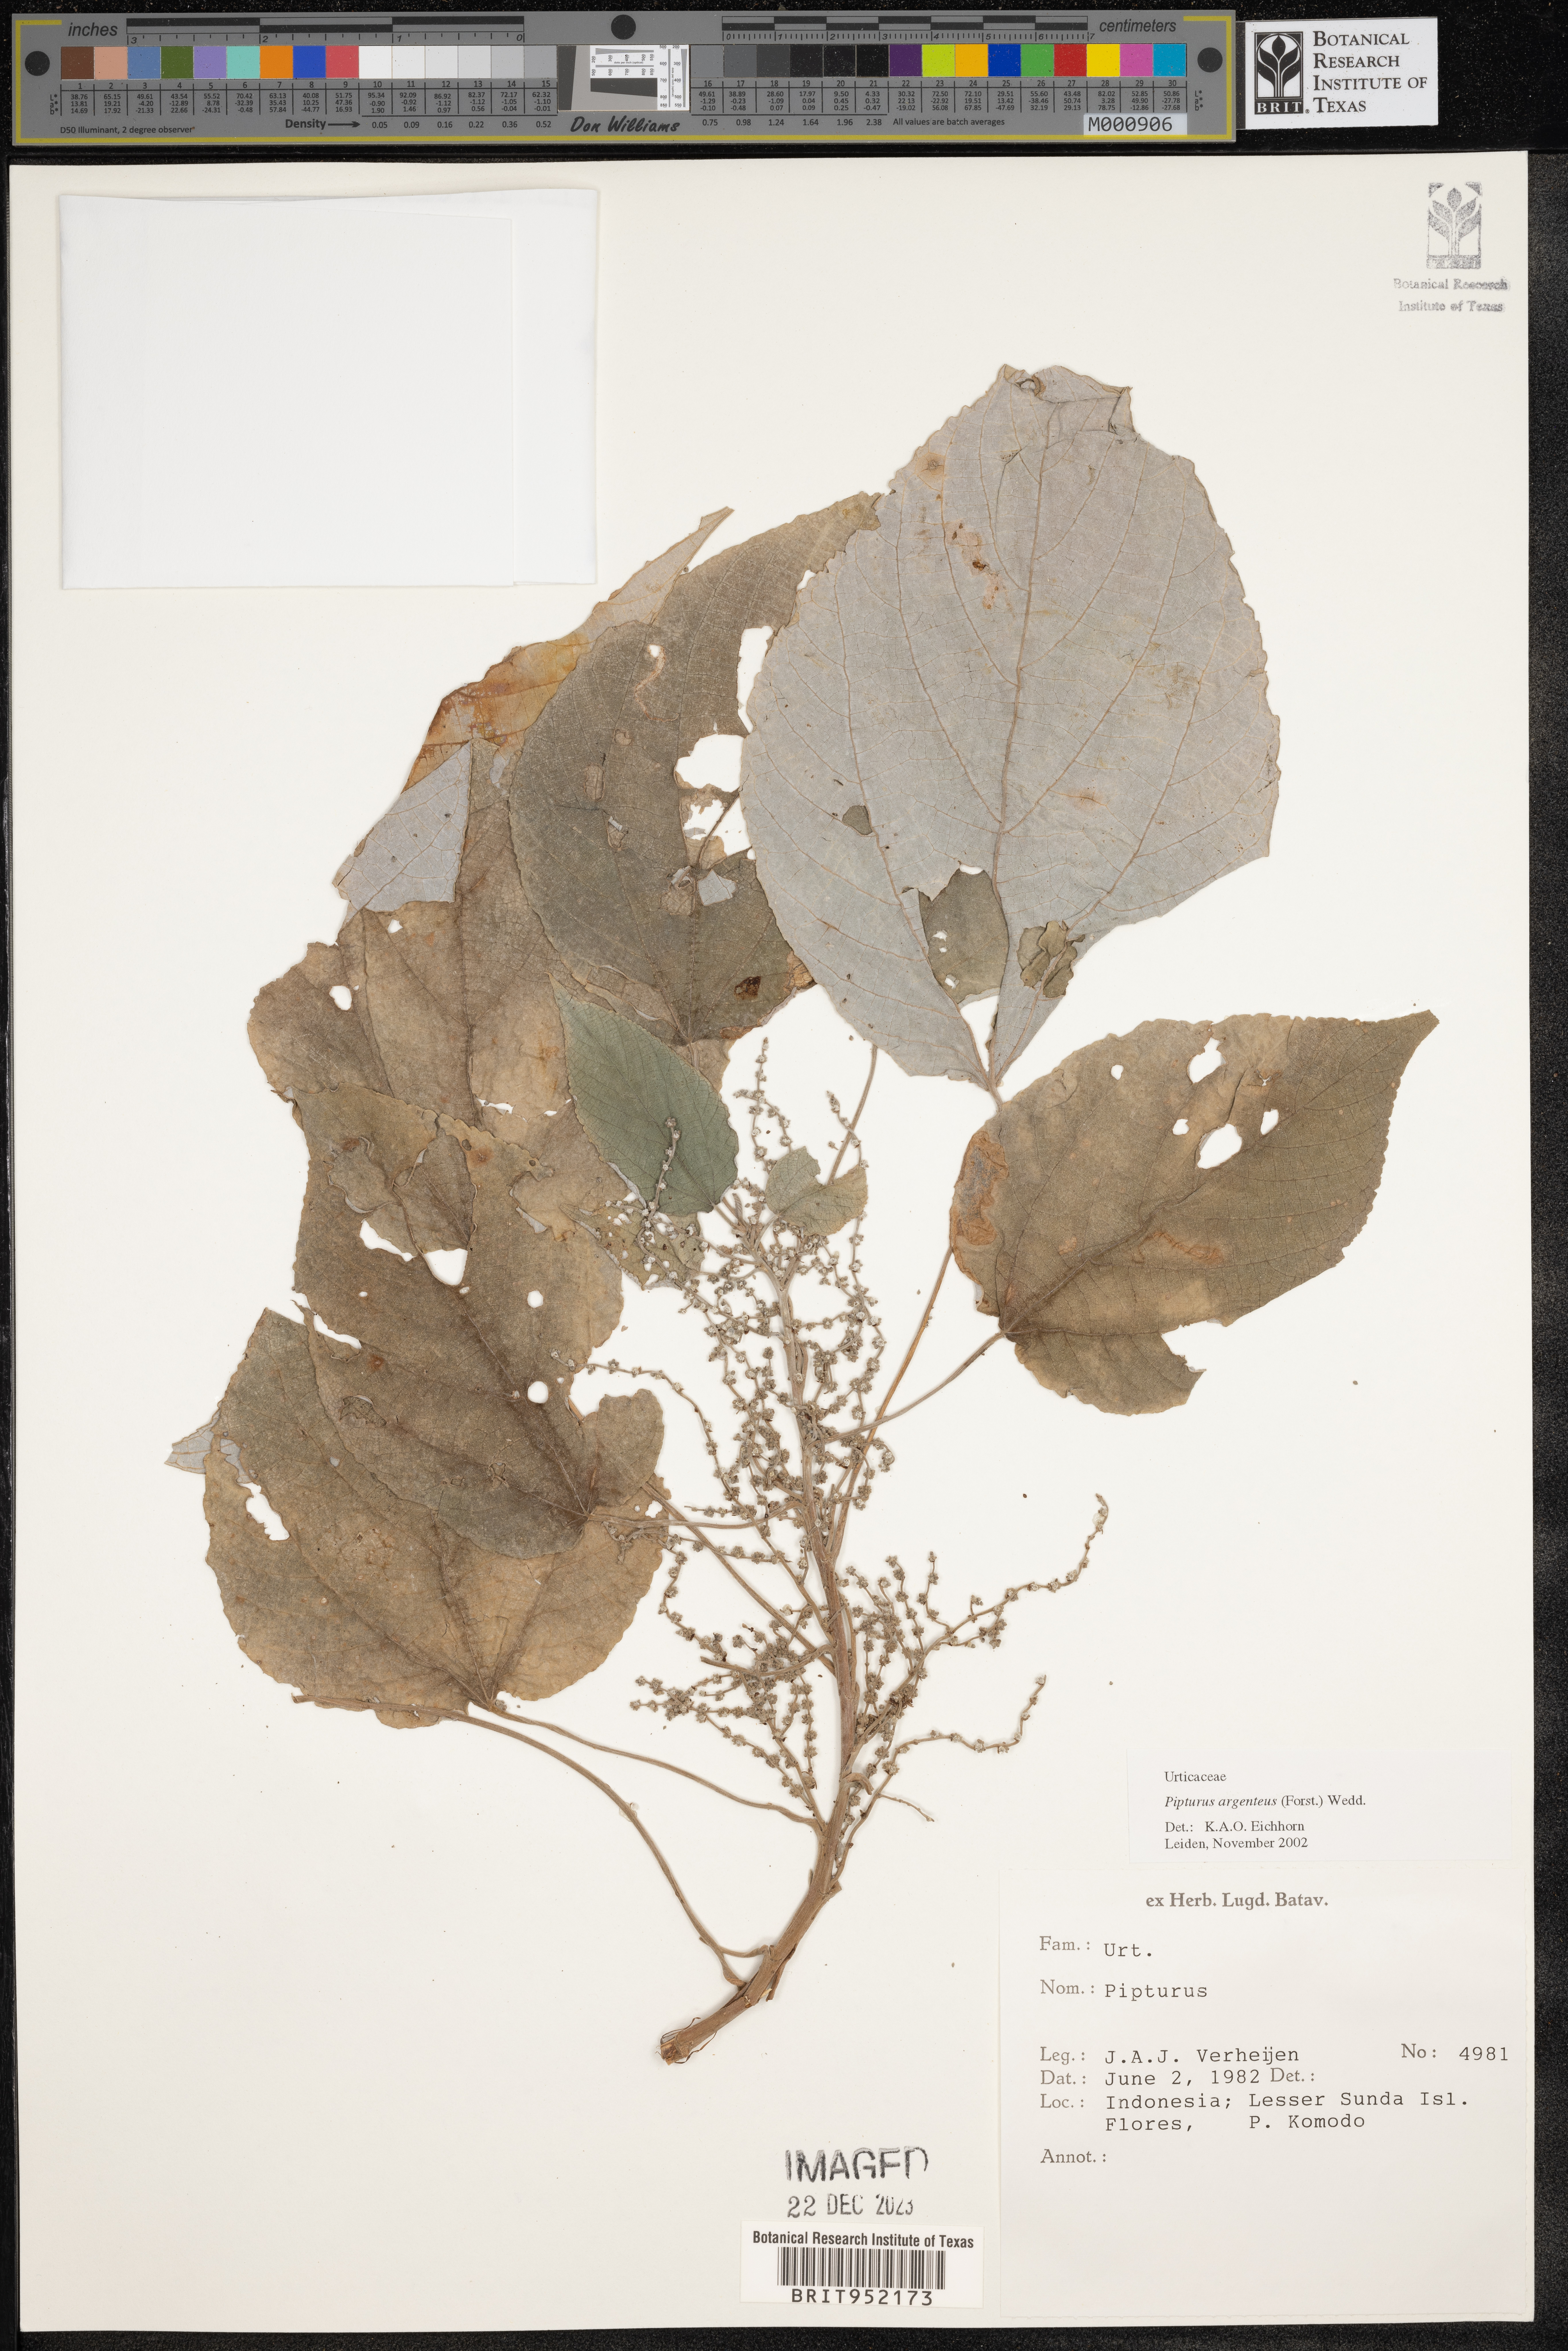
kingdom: Plantae
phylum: Tracheophyta
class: Magnoliopsida
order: Rosales
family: Urticaceae
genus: Pipturus
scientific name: Pipturus argenteus
